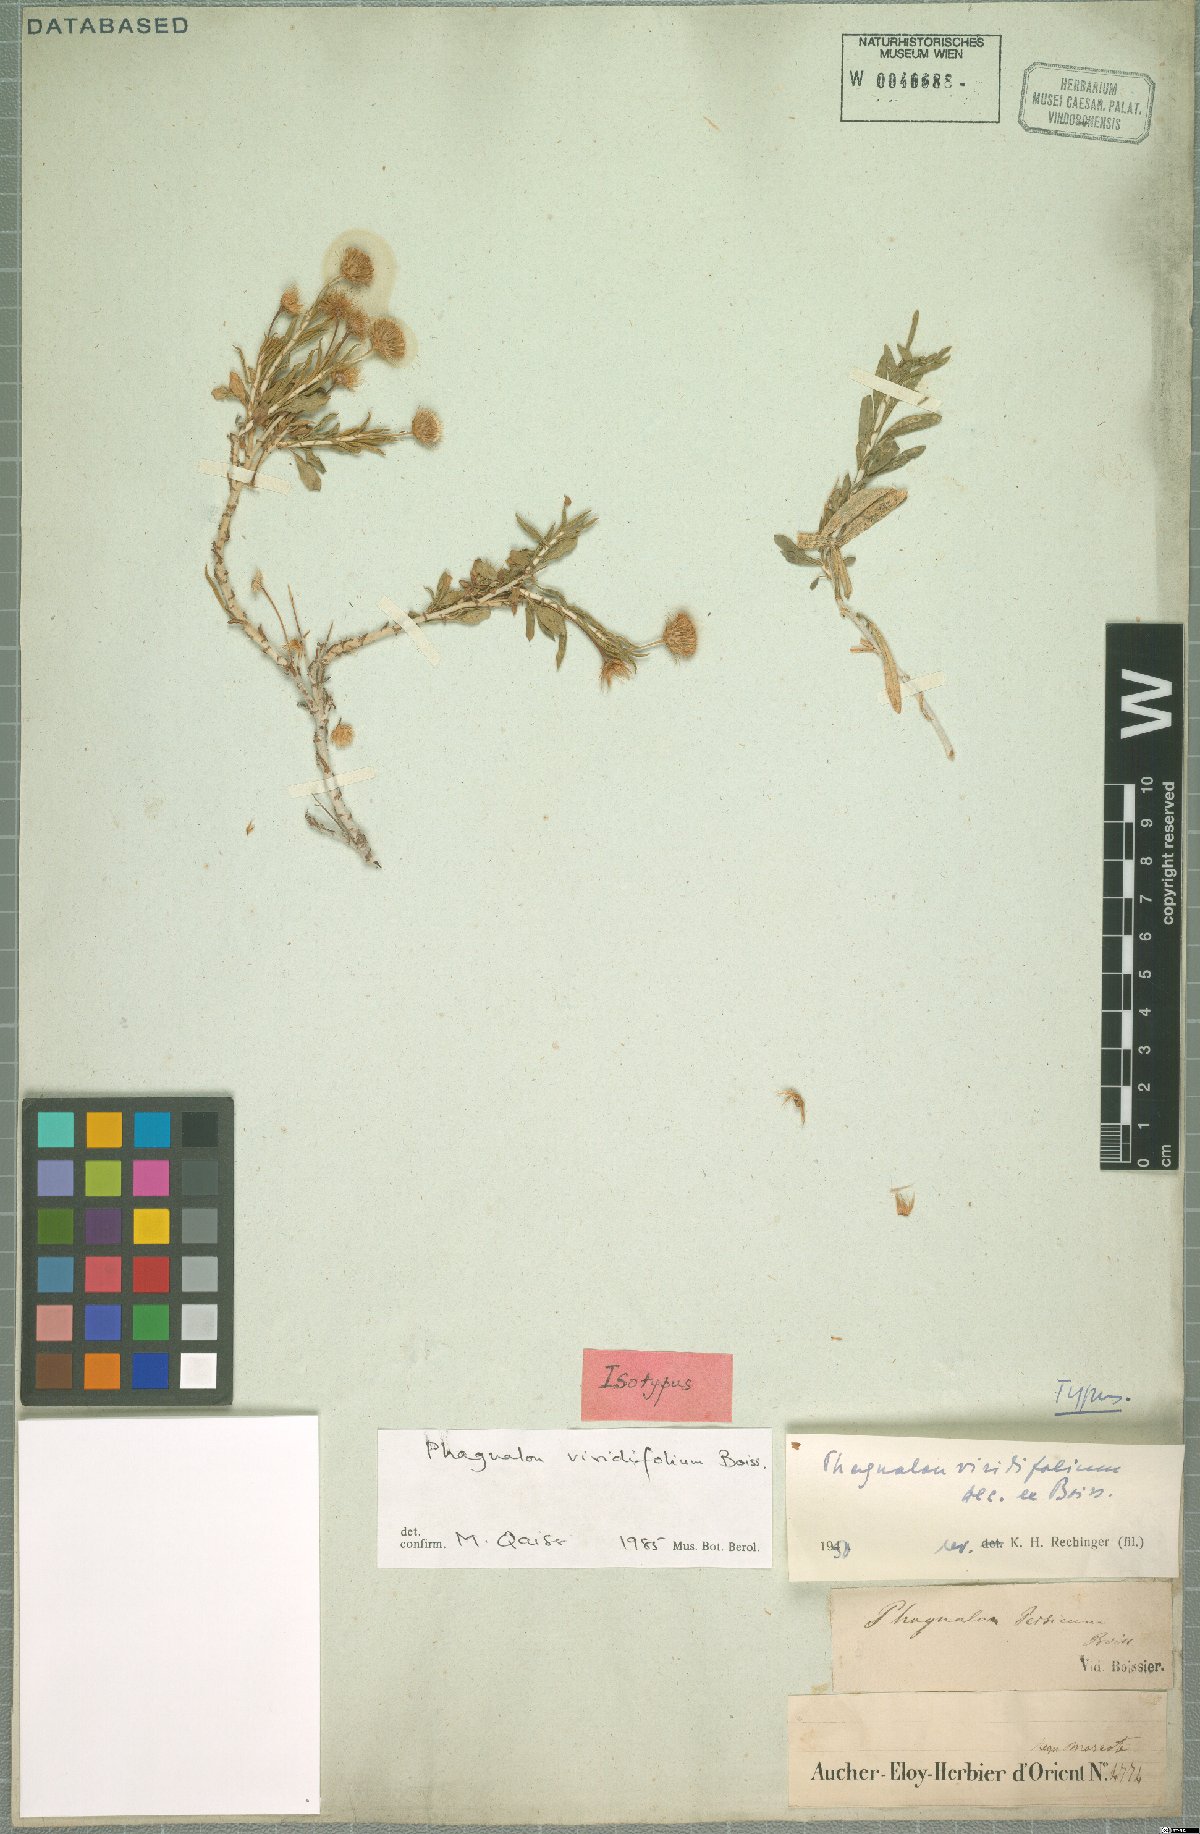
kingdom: Plantae
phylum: Tracheophyta
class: Magnoliopsida
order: Asterales
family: Asteraceae
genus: Phagnalon
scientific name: Phagnalon schweinfurthii
